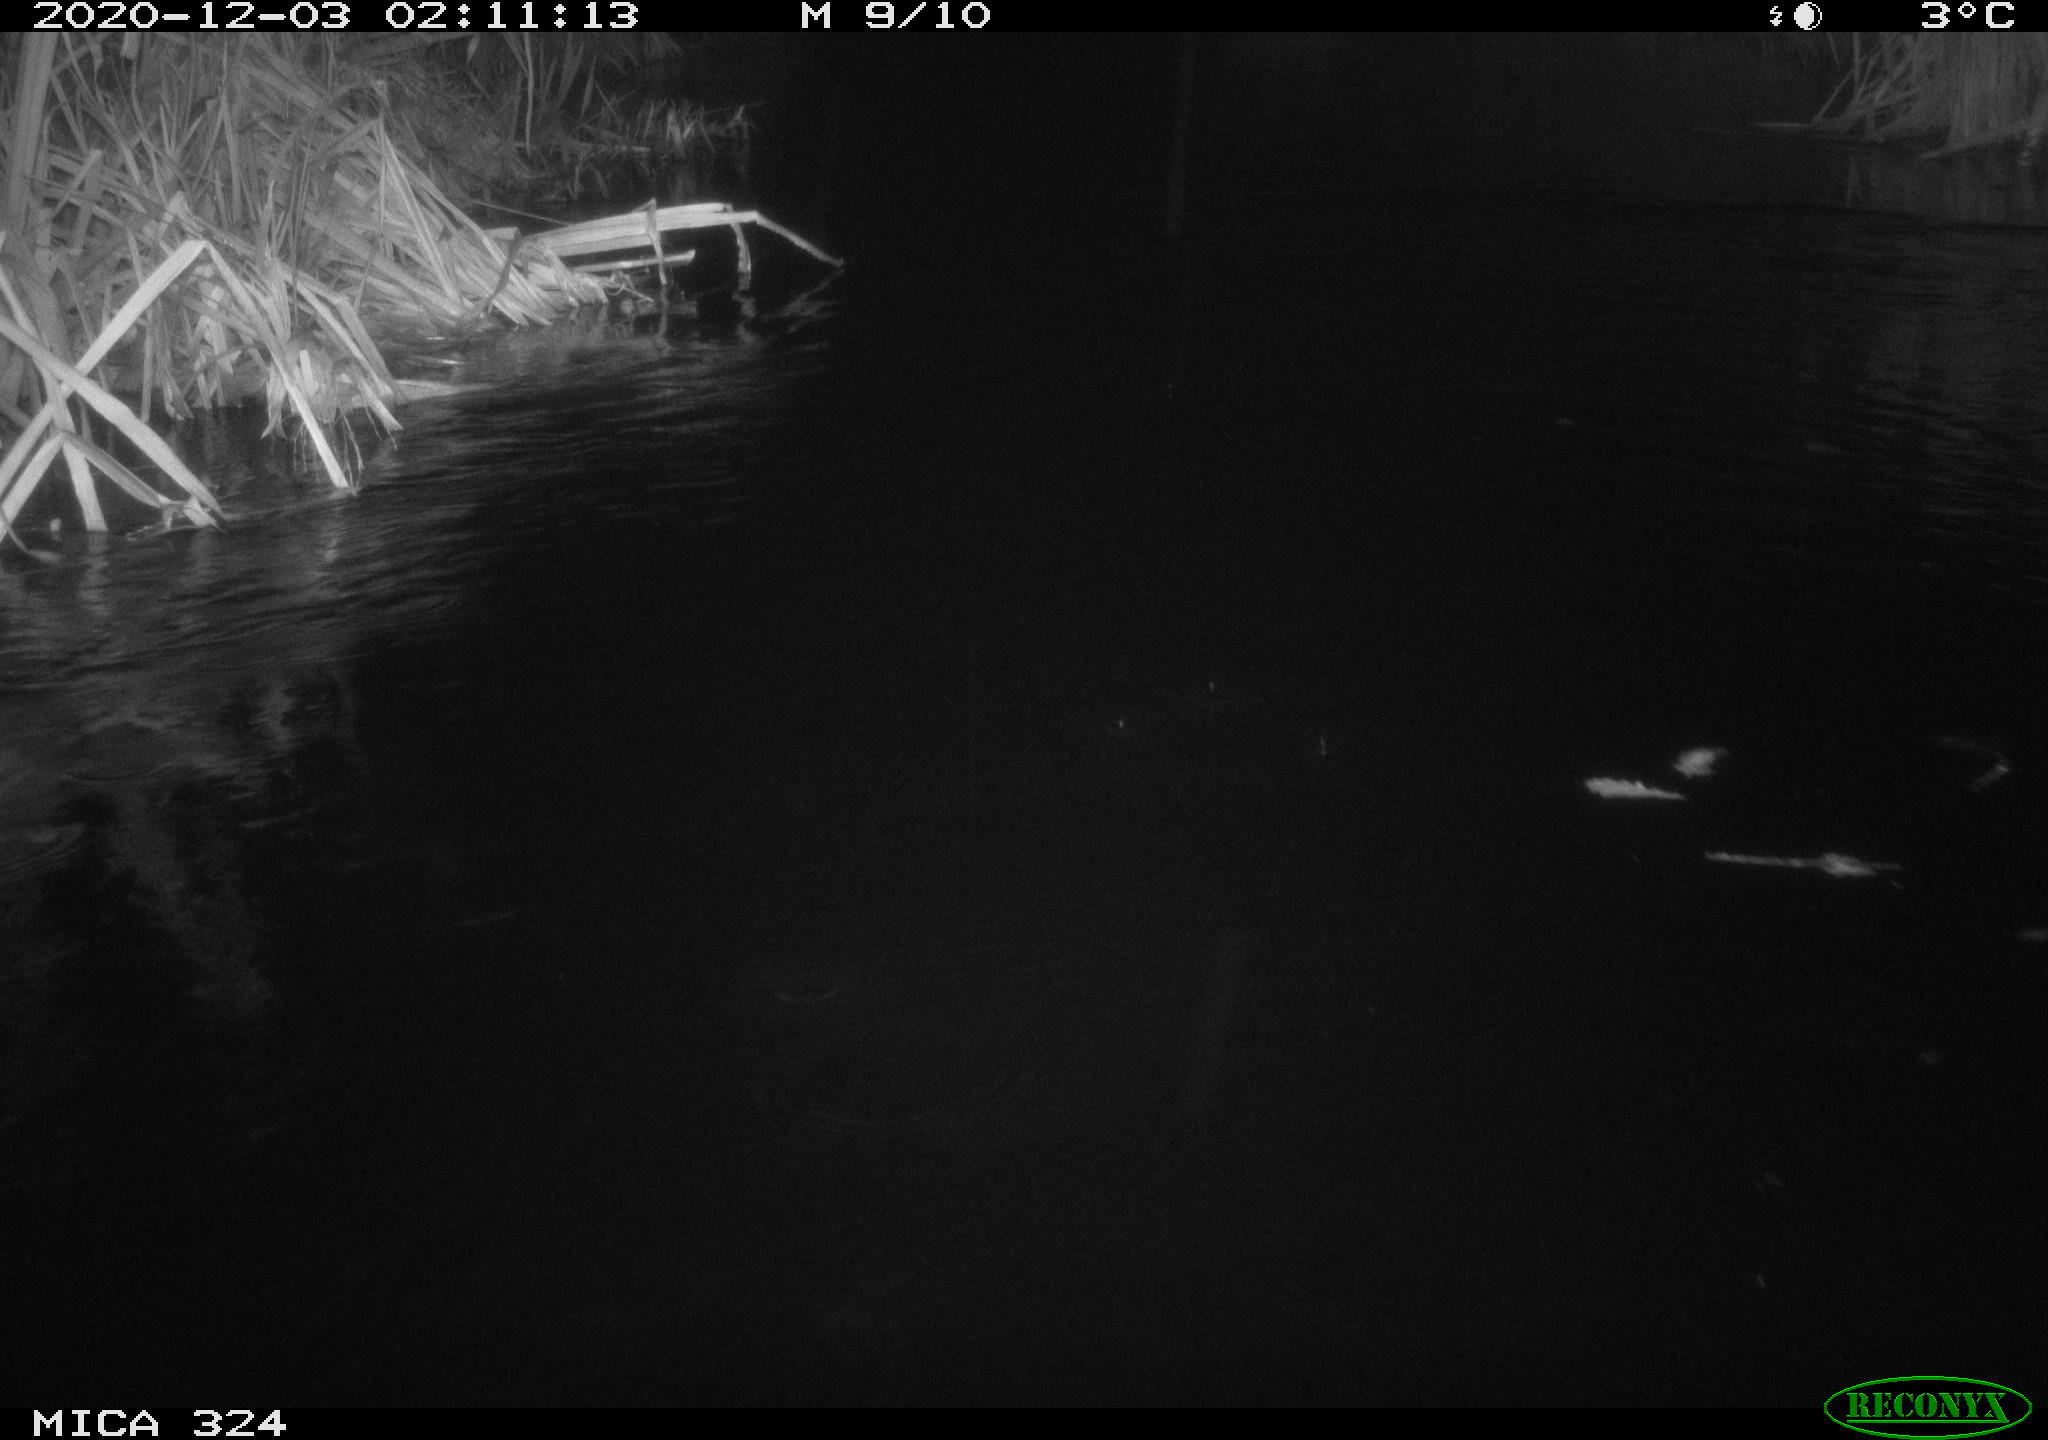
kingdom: Animalia
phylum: Chordata
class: Mammalia
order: Rodentia
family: Cricetidae
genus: Ondatra
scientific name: Ondatra zibethicus
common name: Muskrat
